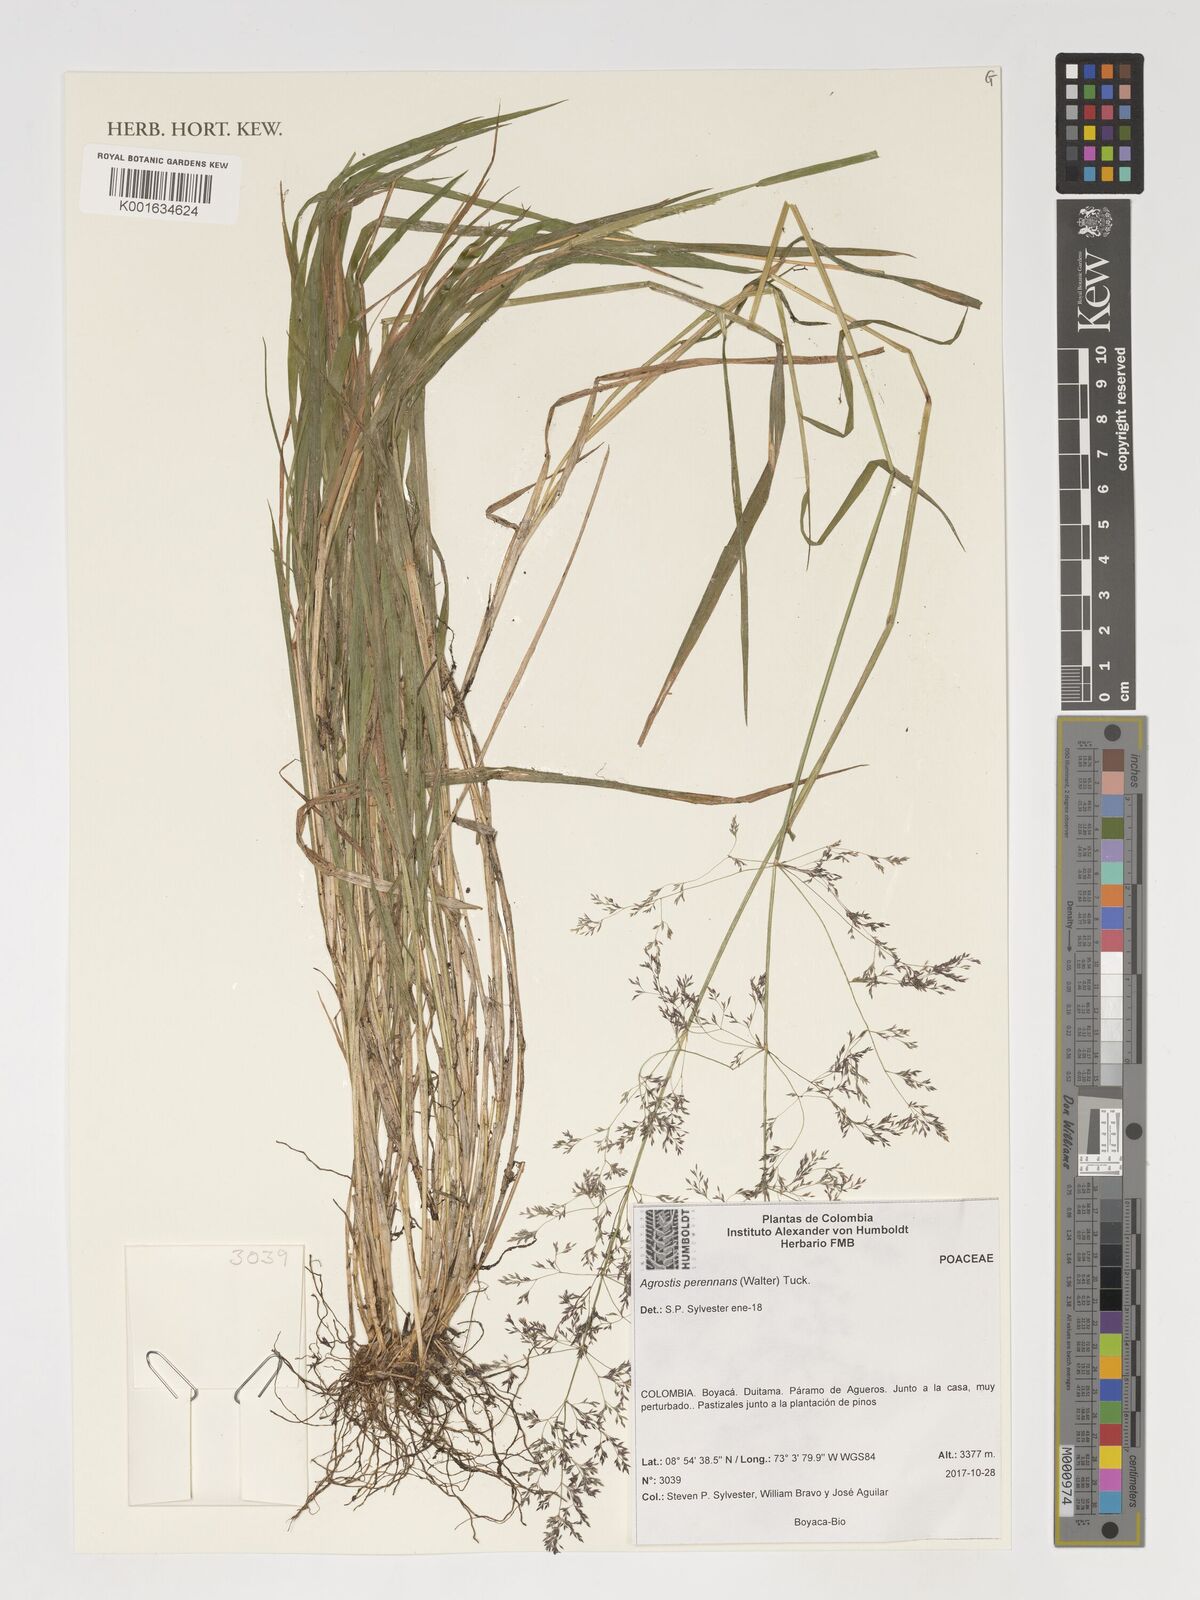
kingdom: Plantae
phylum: Tracheophyta
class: Liliopsida
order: Poales
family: Poaceae
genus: Agrostis
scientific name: Agrostis perennans
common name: Autumn bent
